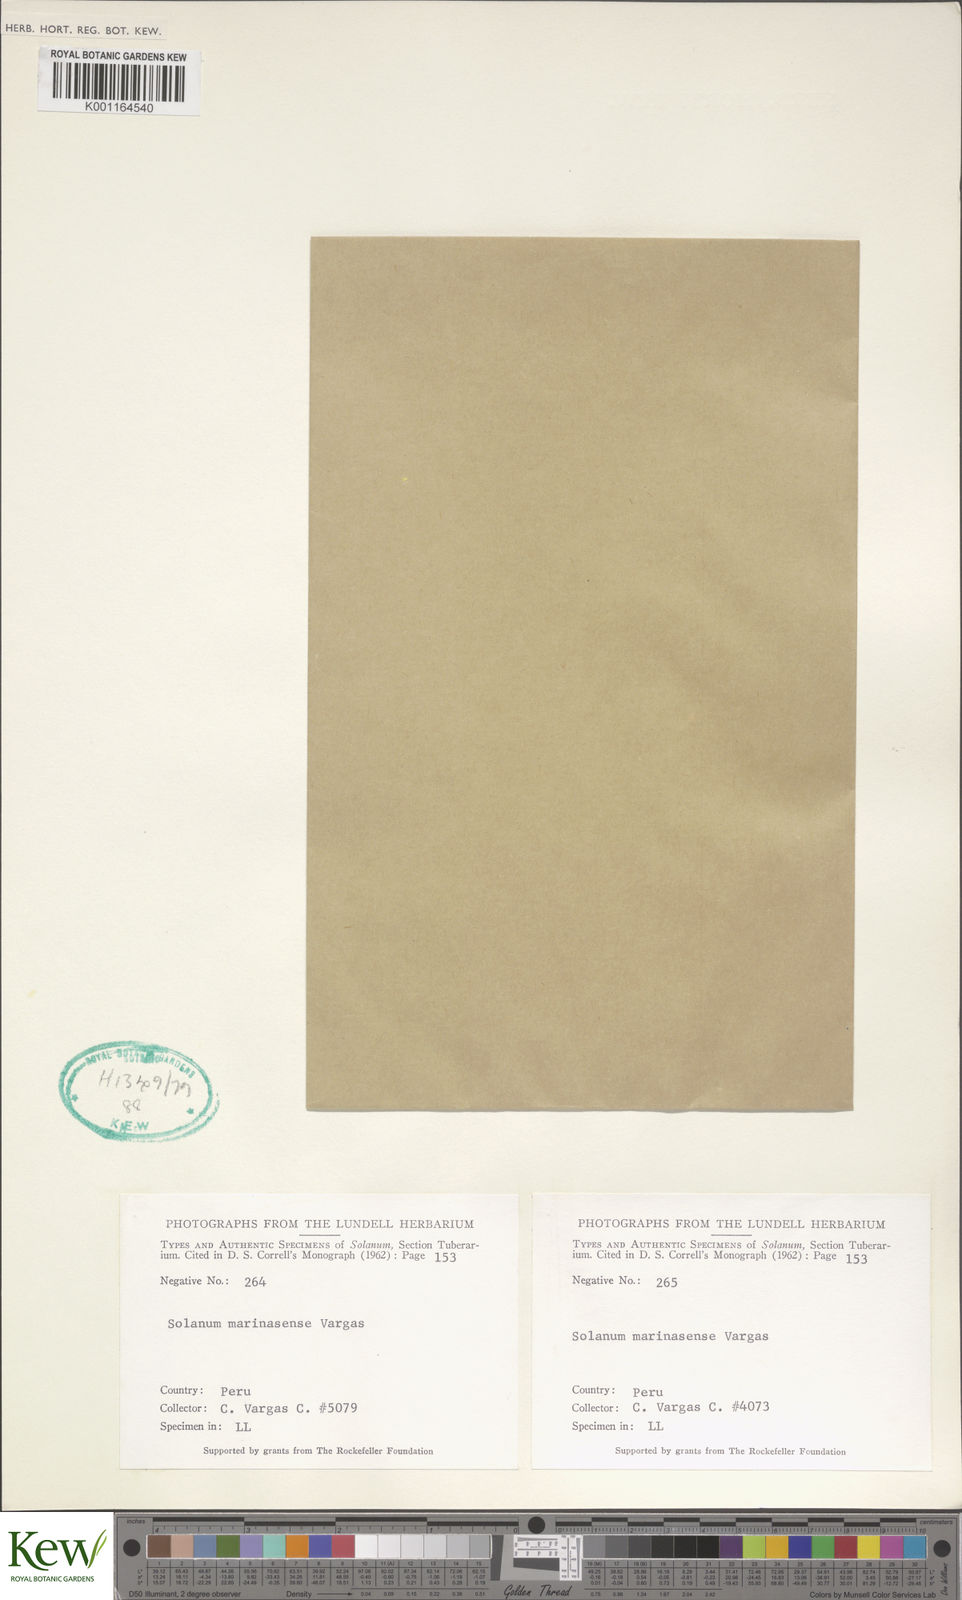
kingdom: Plantae
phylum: Tracheophyta
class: Magnoliopsida
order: Solanales
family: Solanaceae
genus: Solanum
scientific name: Solanum candolleanum
